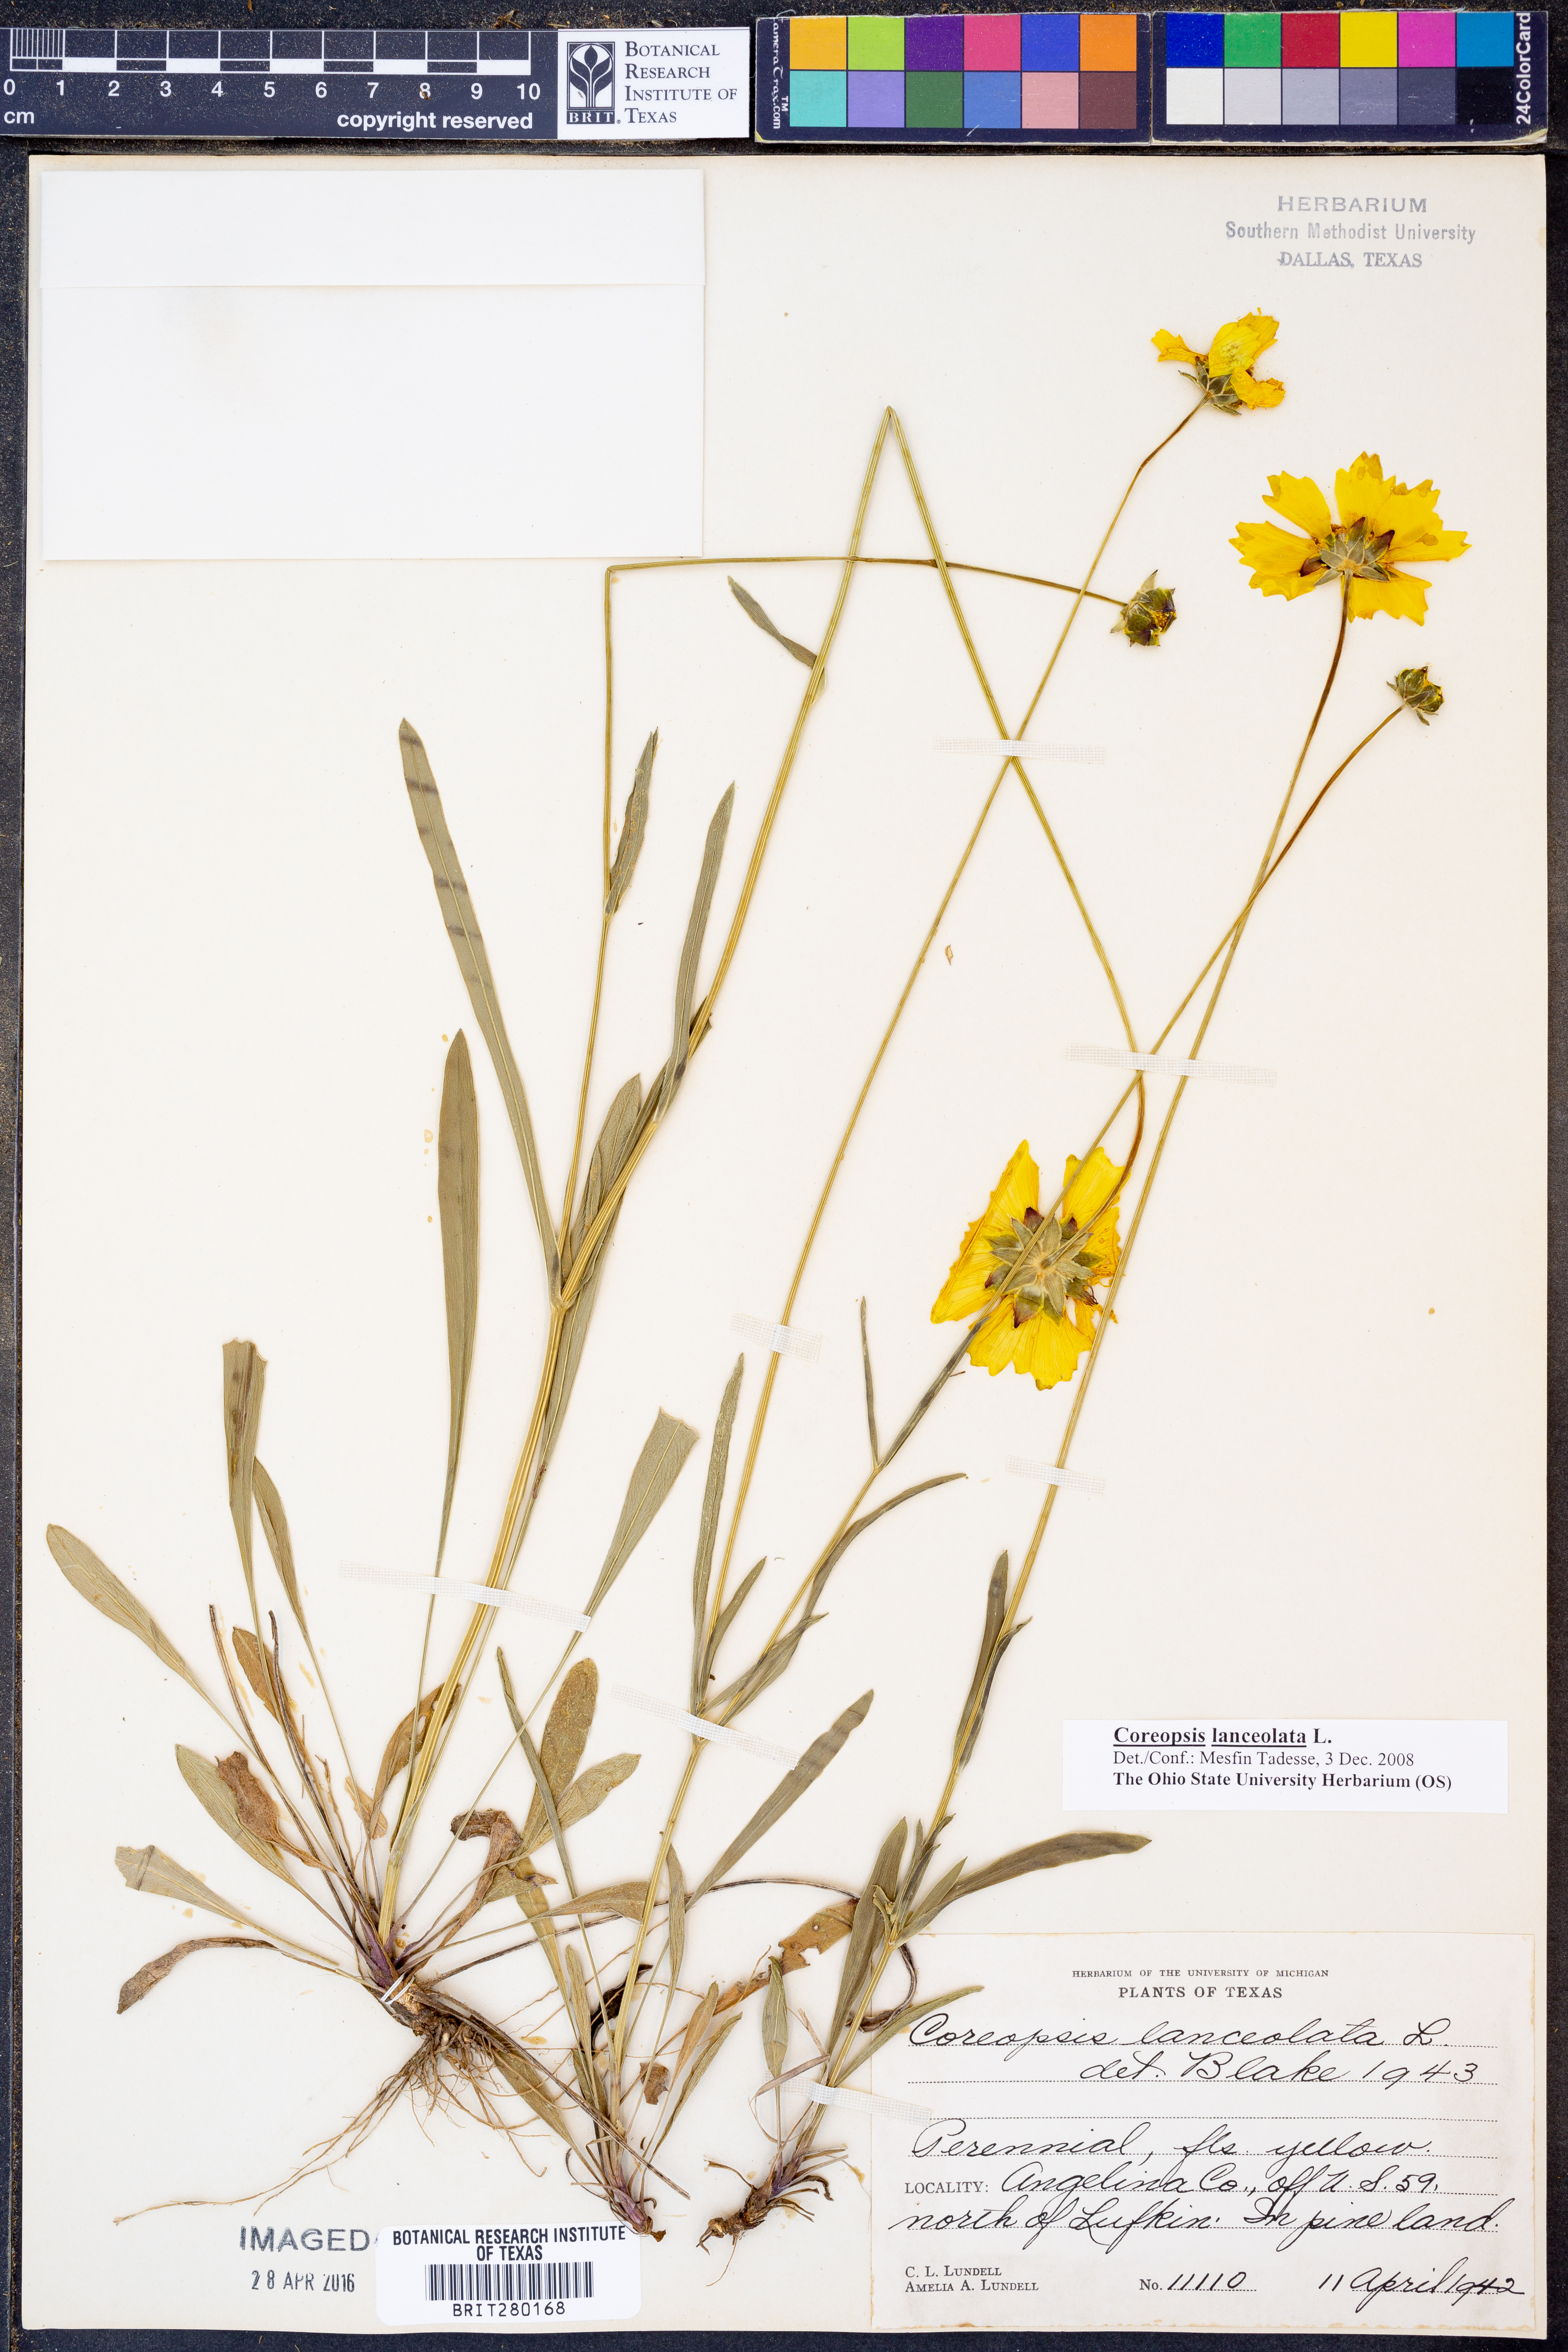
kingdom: Plantae
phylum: Tracheophyta
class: Magnoliopsida
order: Asterales
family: Asteraceae
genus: Coreopsis
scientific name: Coreopsis lanceolata
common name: Garden coreopsis
